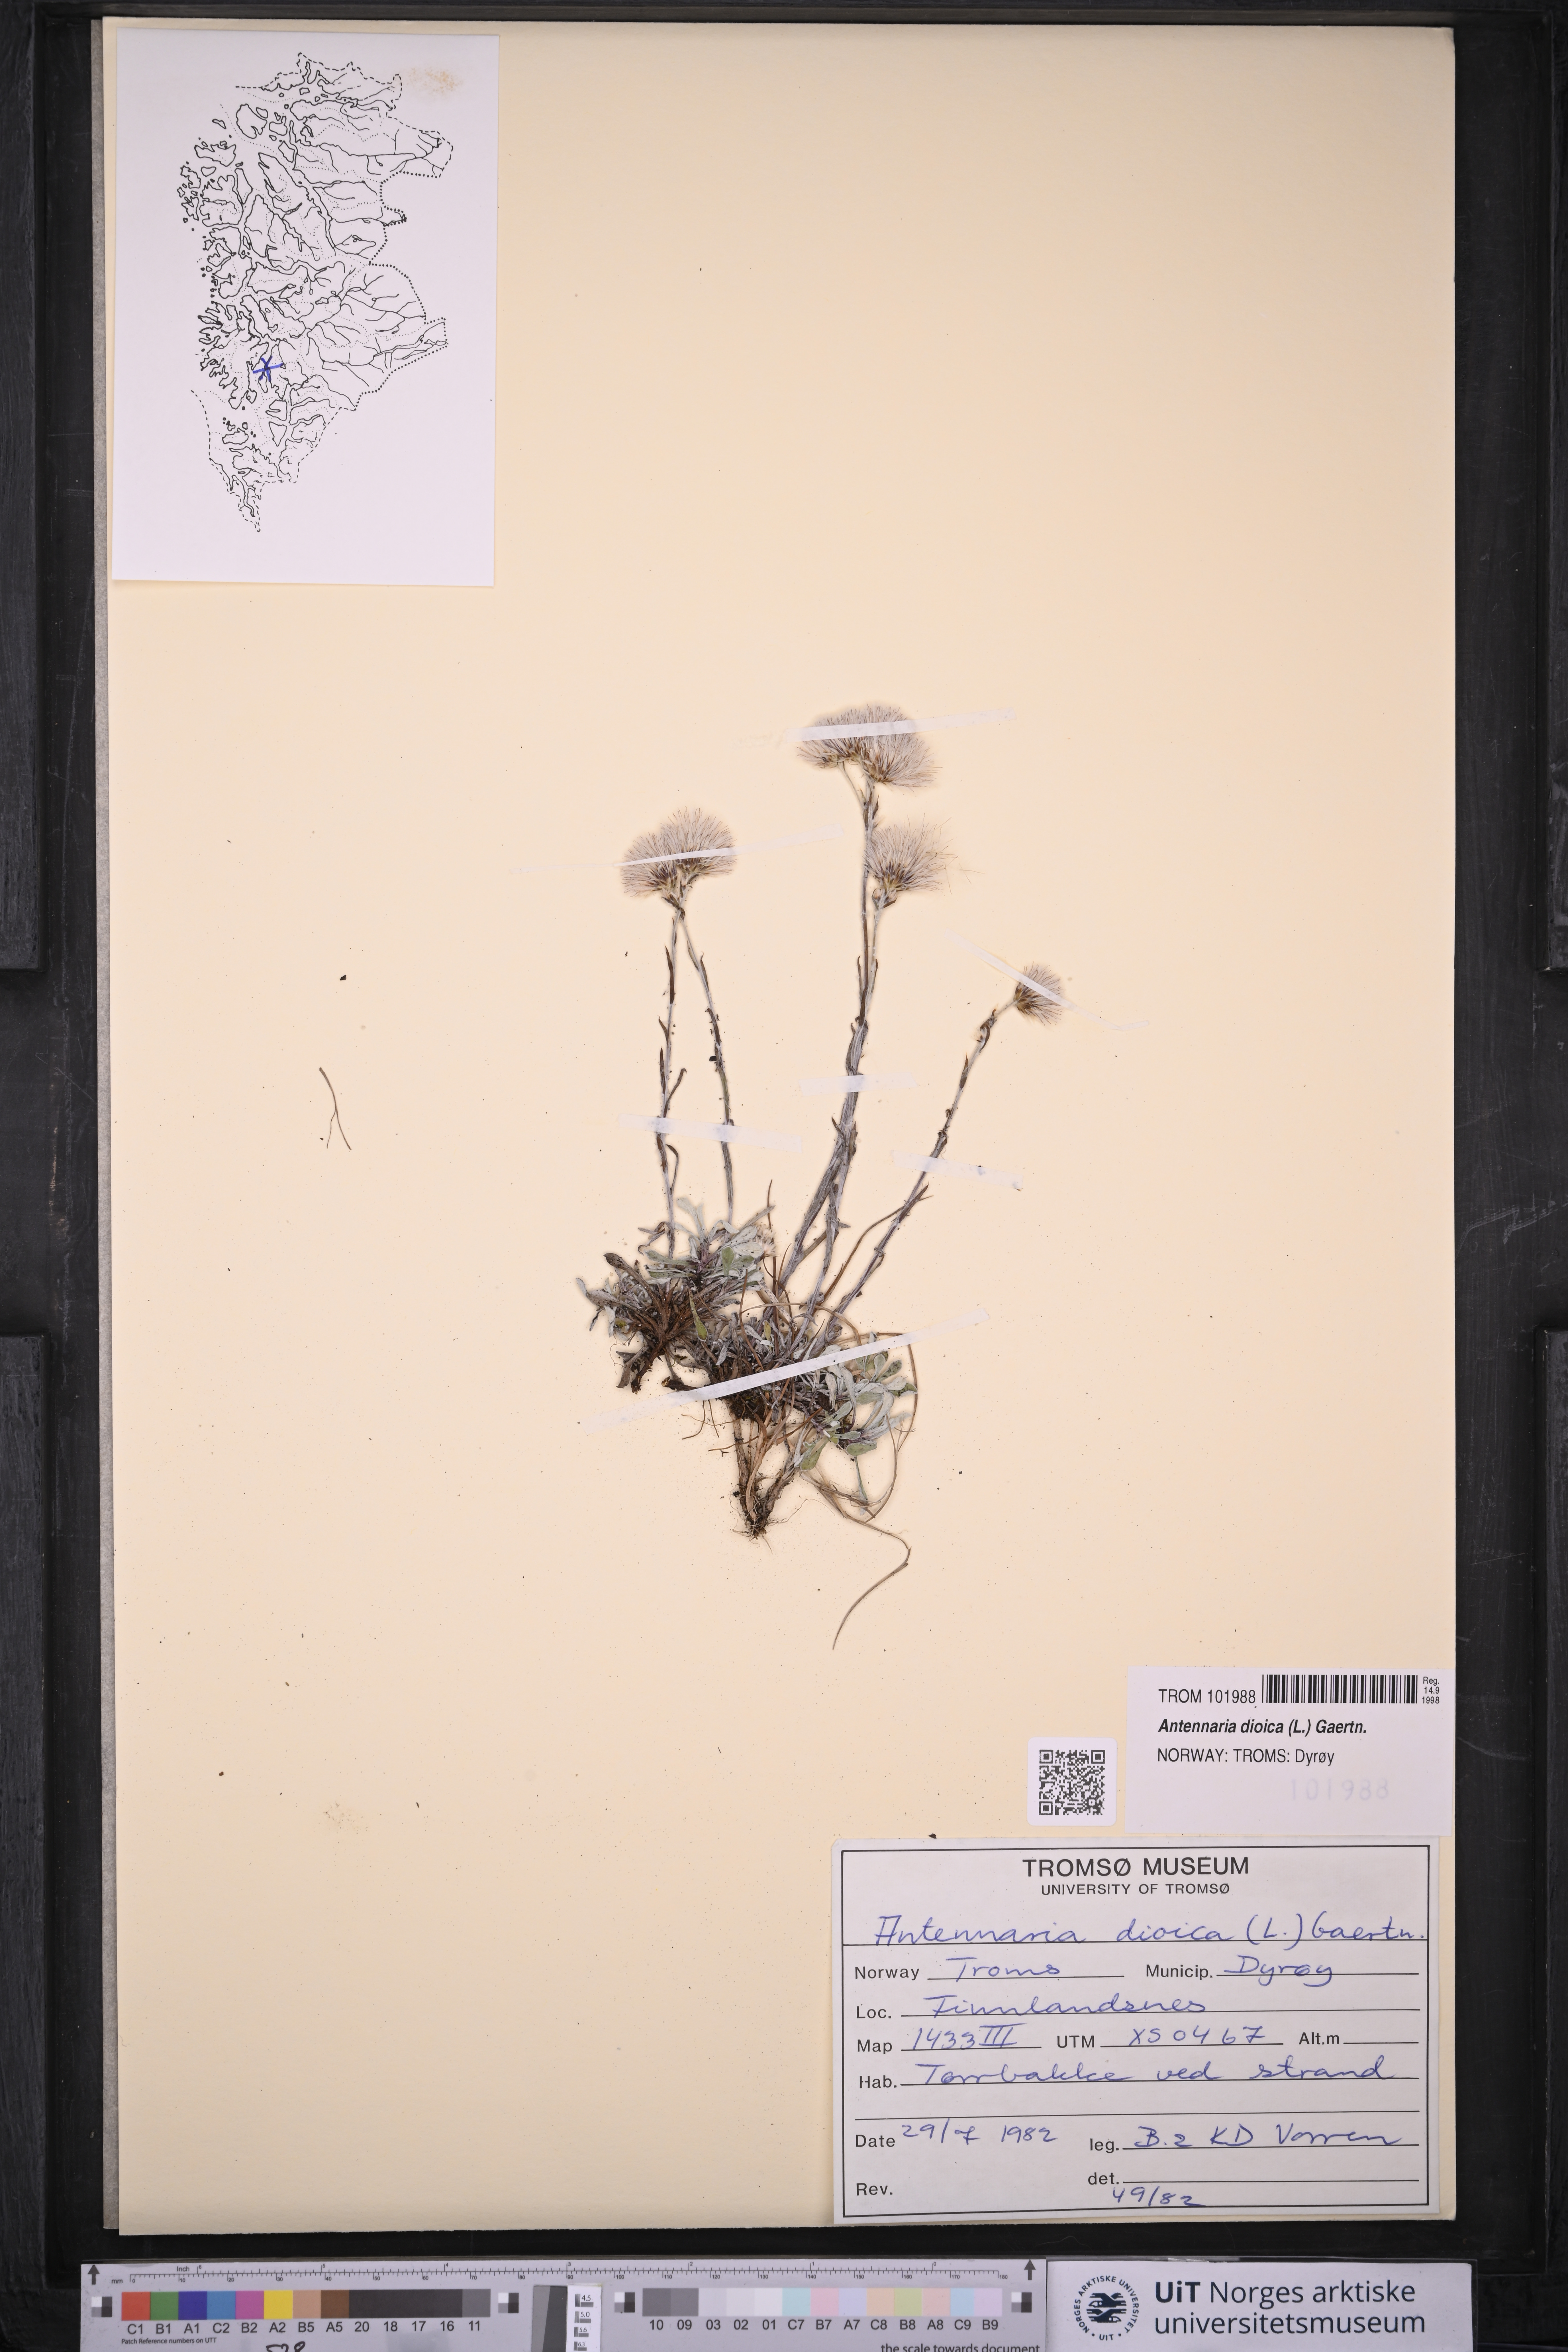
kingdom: Plantae
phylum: Tracheophyta
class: Magnoliopsida
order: Asterales
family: Asteraceae
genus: Antennaria
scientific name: Antennaria dioica
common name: Mountain everlasting
